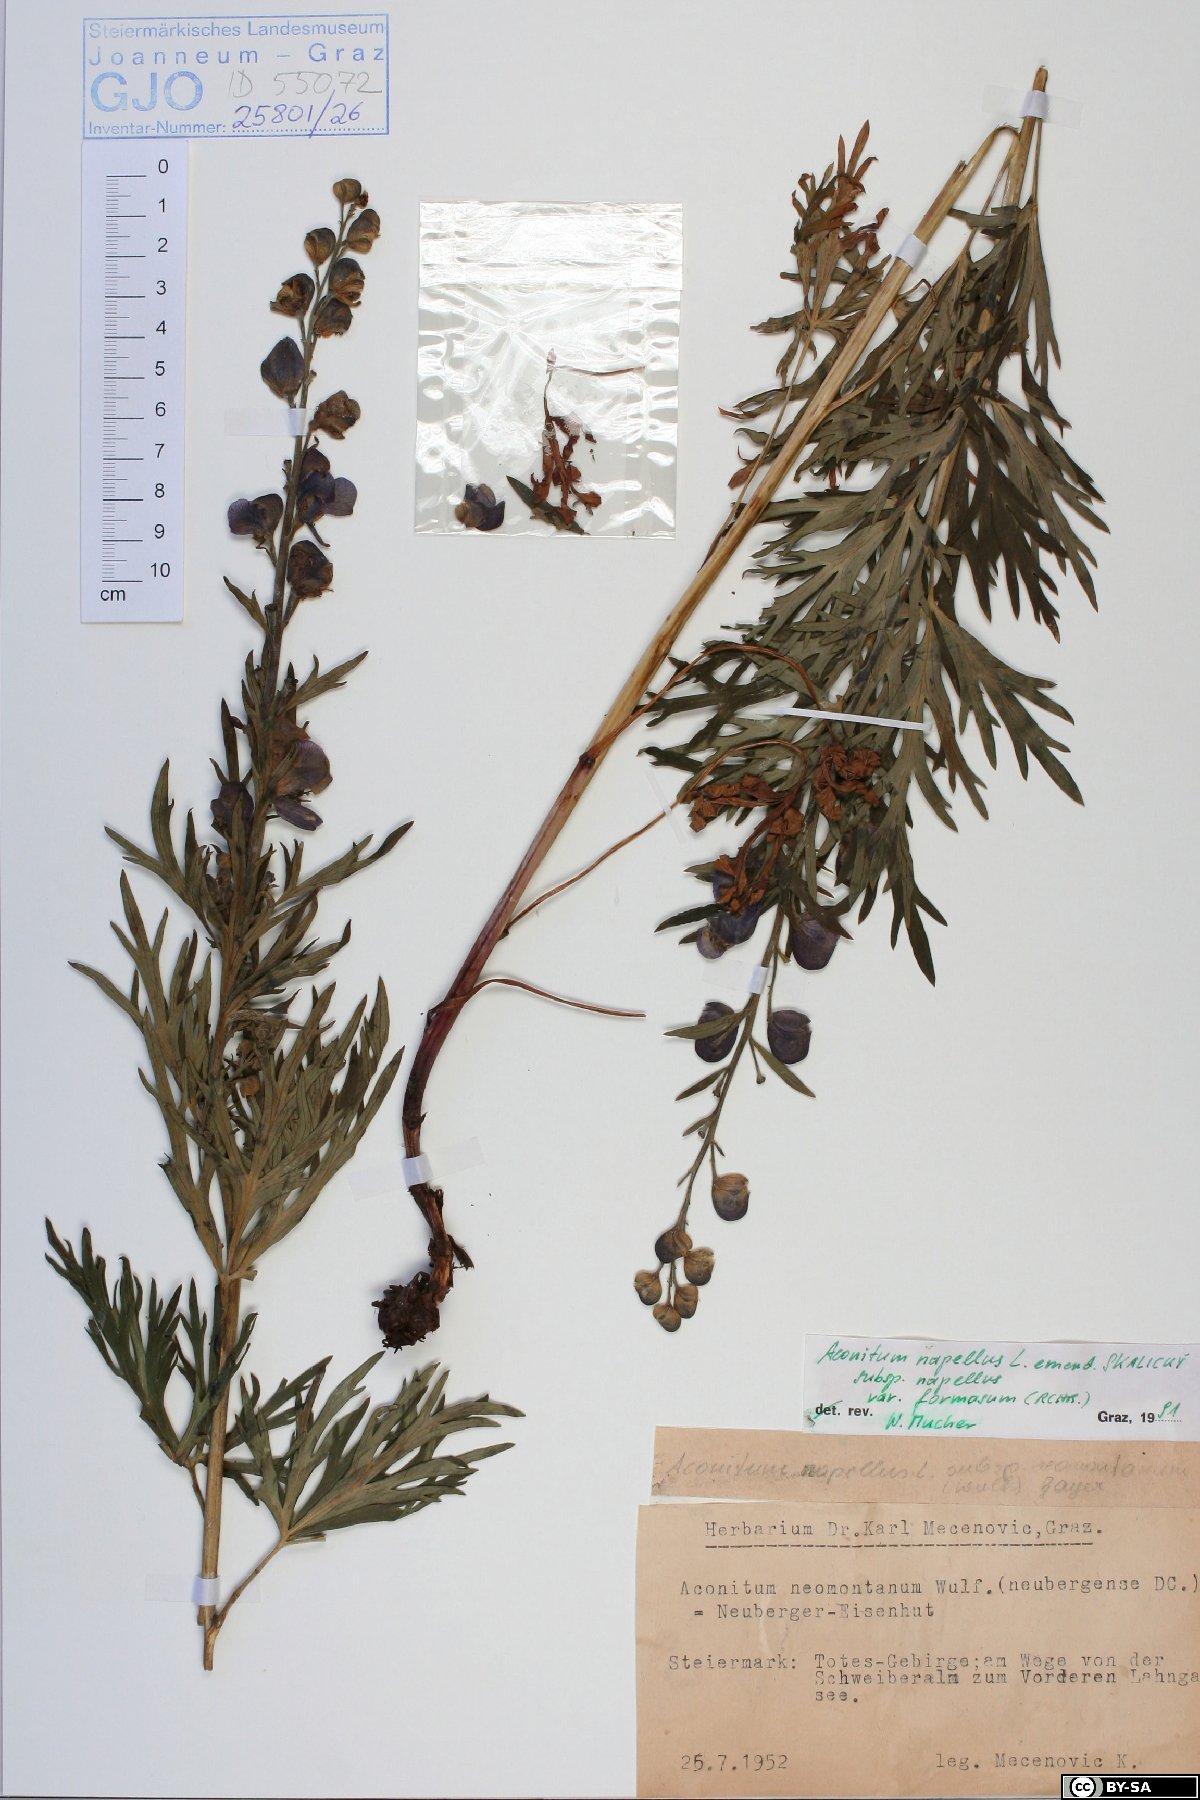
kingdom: Plantae
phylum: Tracheophyta
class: Magnoliopsida
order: Ranunculales
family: Ranunculaceae
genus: Aconitum
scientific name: Aconitum napellus
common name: Garden monkshood
